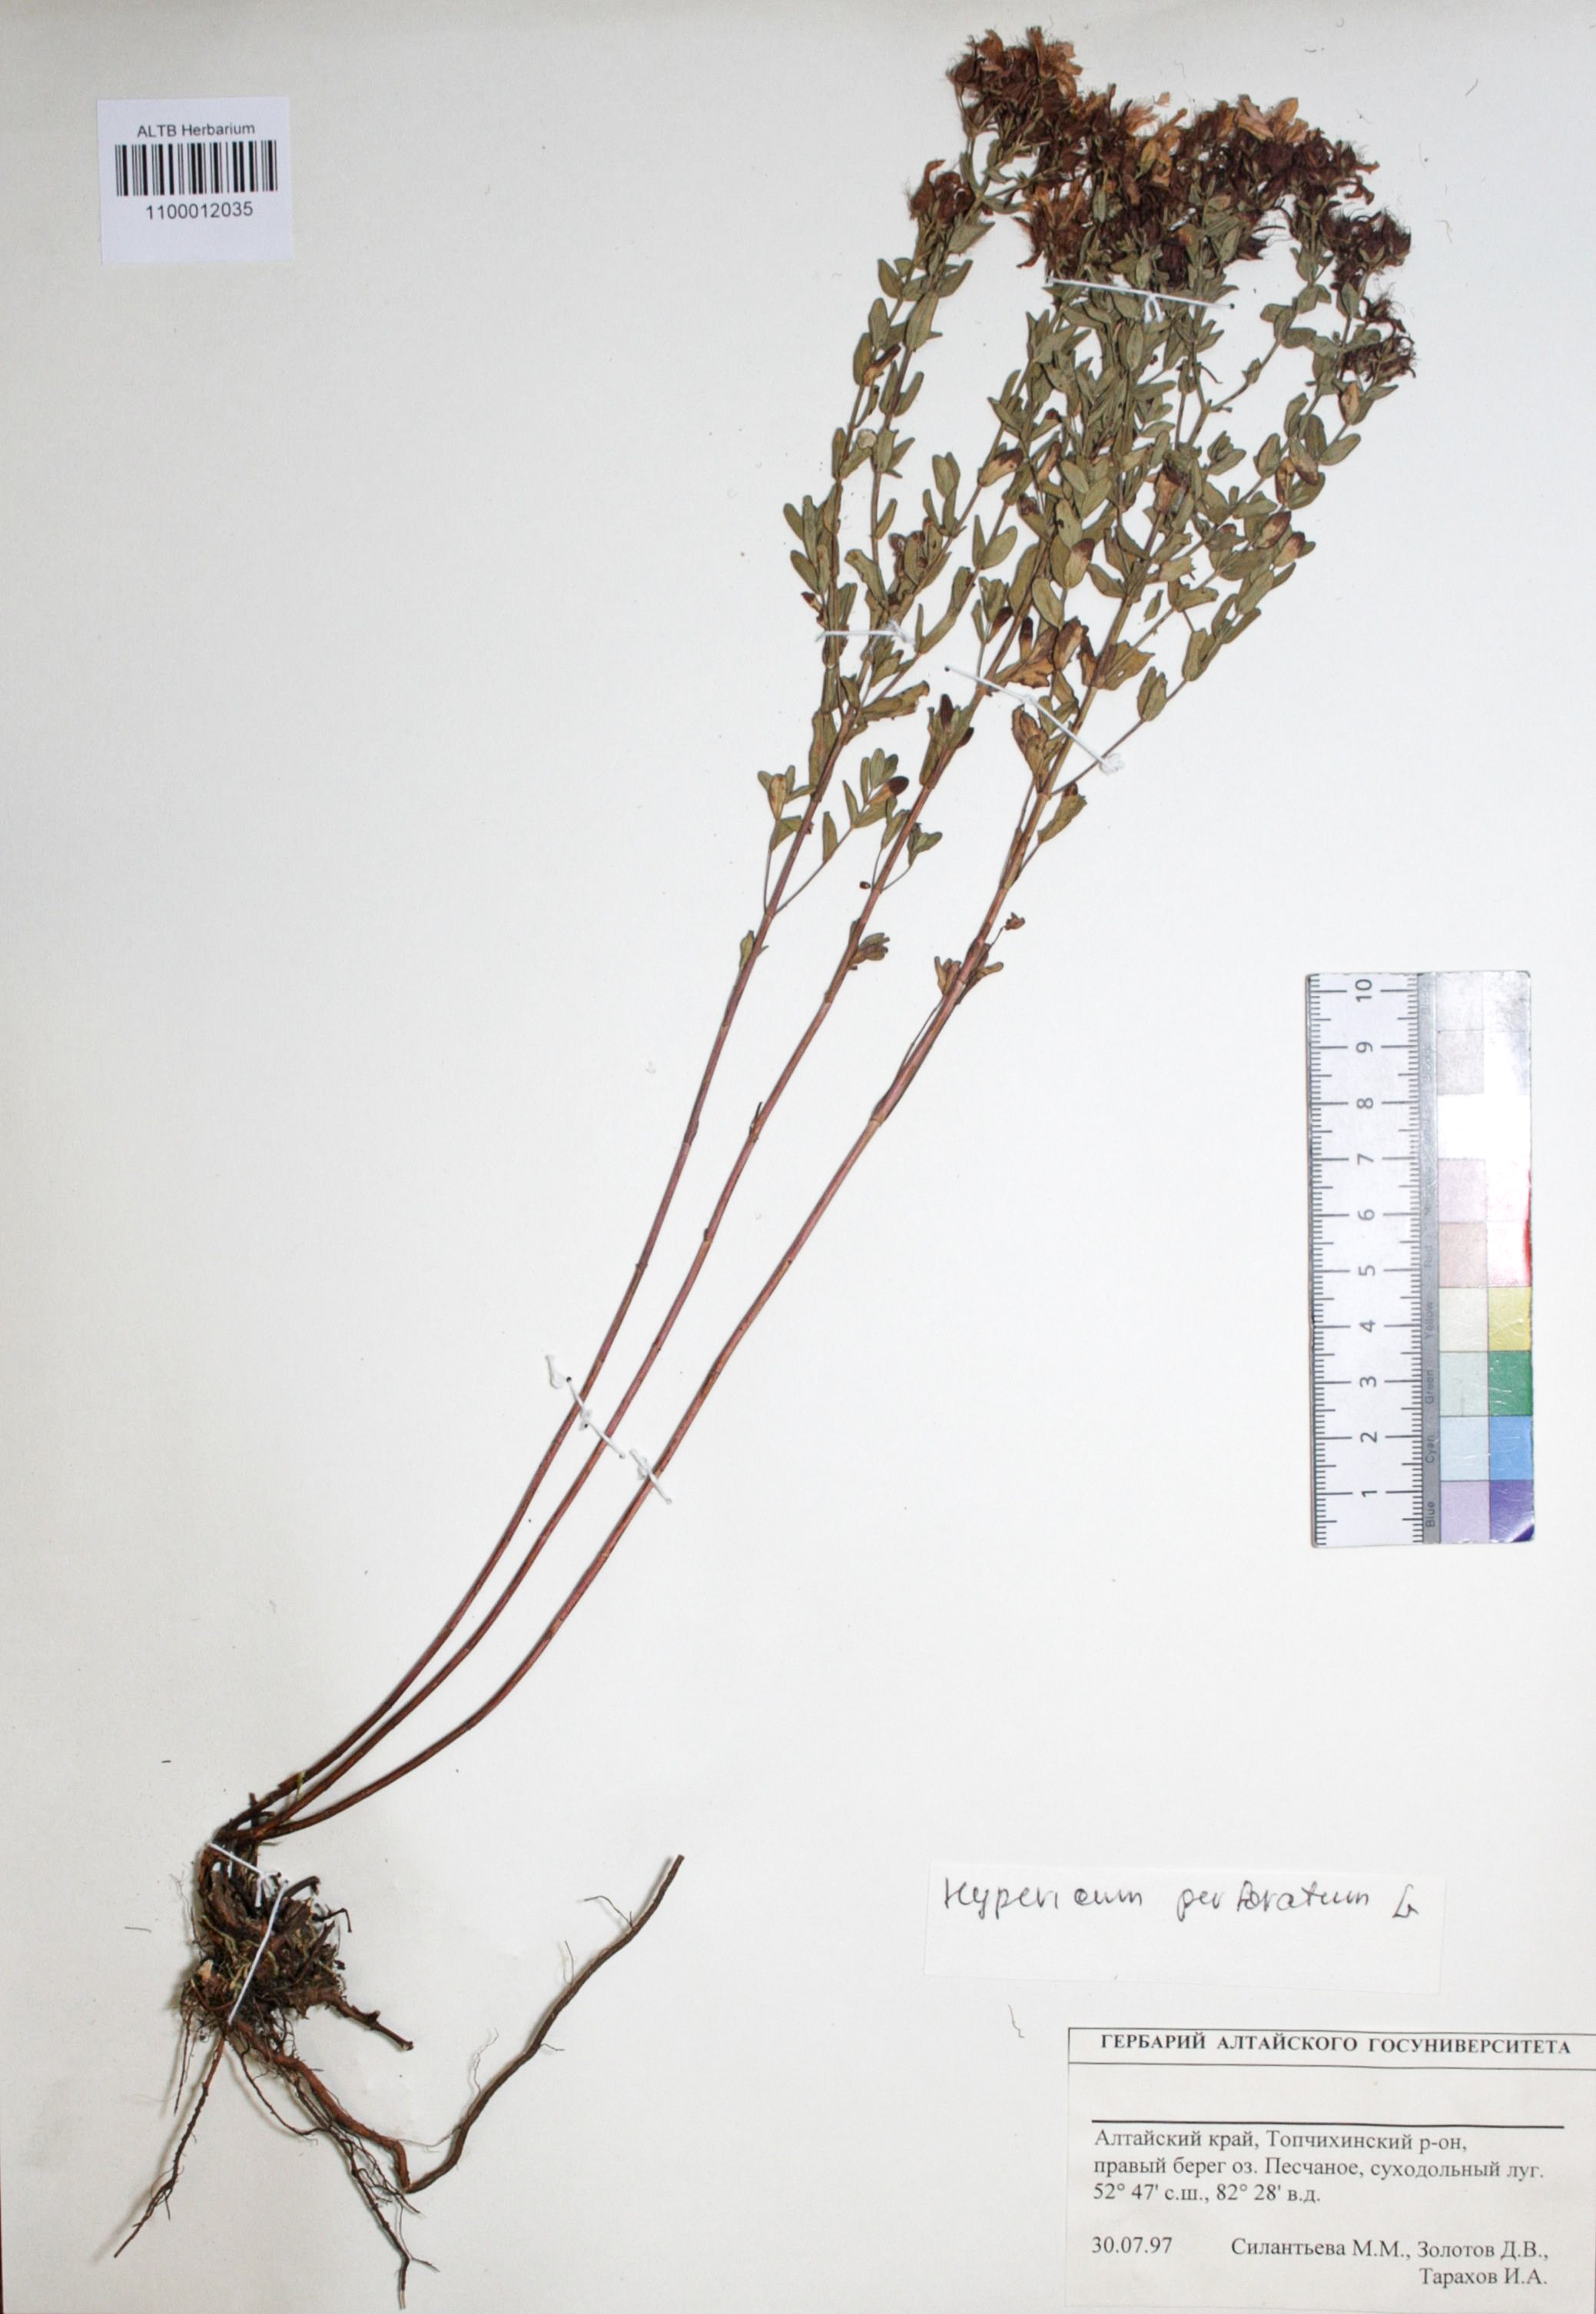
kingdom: Plantae
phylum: Tracheophyta
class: Magnoliopsida
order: Malpighiales
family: Hypericaceae
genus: Hypericum
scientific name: Hypericum perforatum
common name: Common st. johnswort
